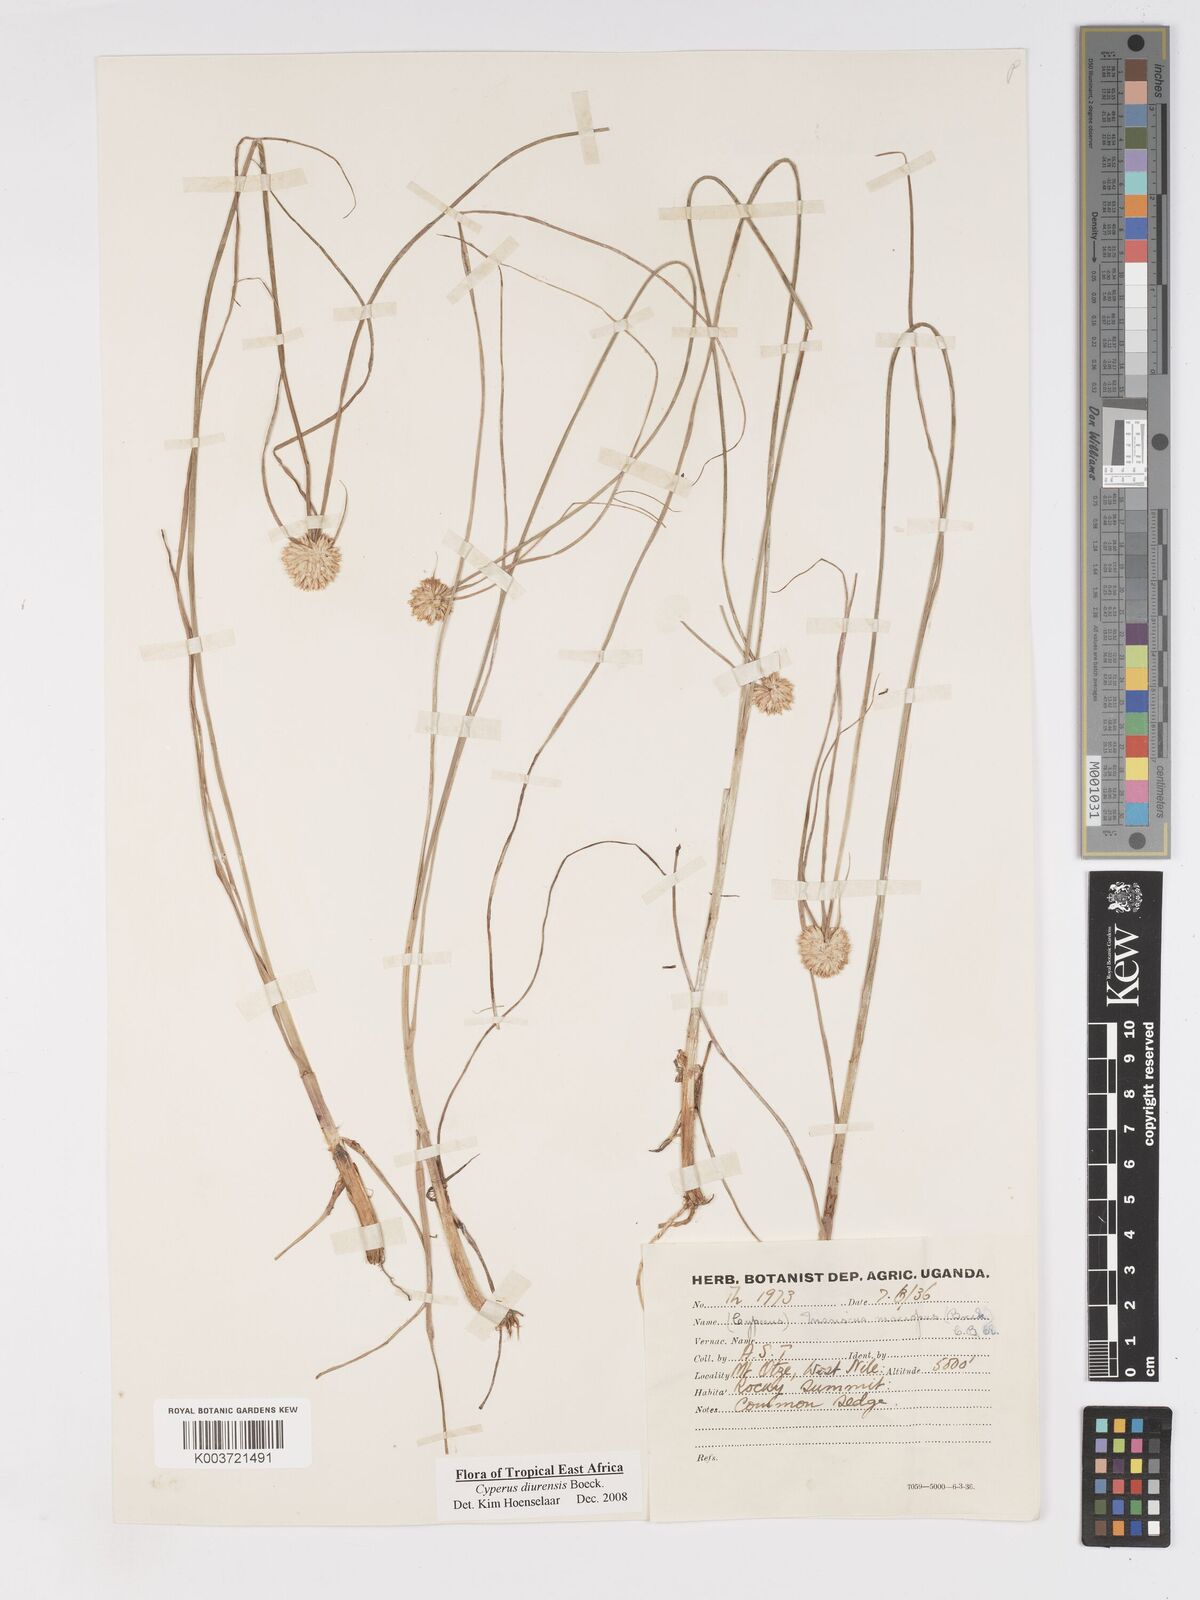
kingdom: Plantae
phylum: Tracheophyta
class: Liliopsida
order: Poales
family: Cyperaceae
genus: Cyperus
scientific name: Cyperus diurensis
